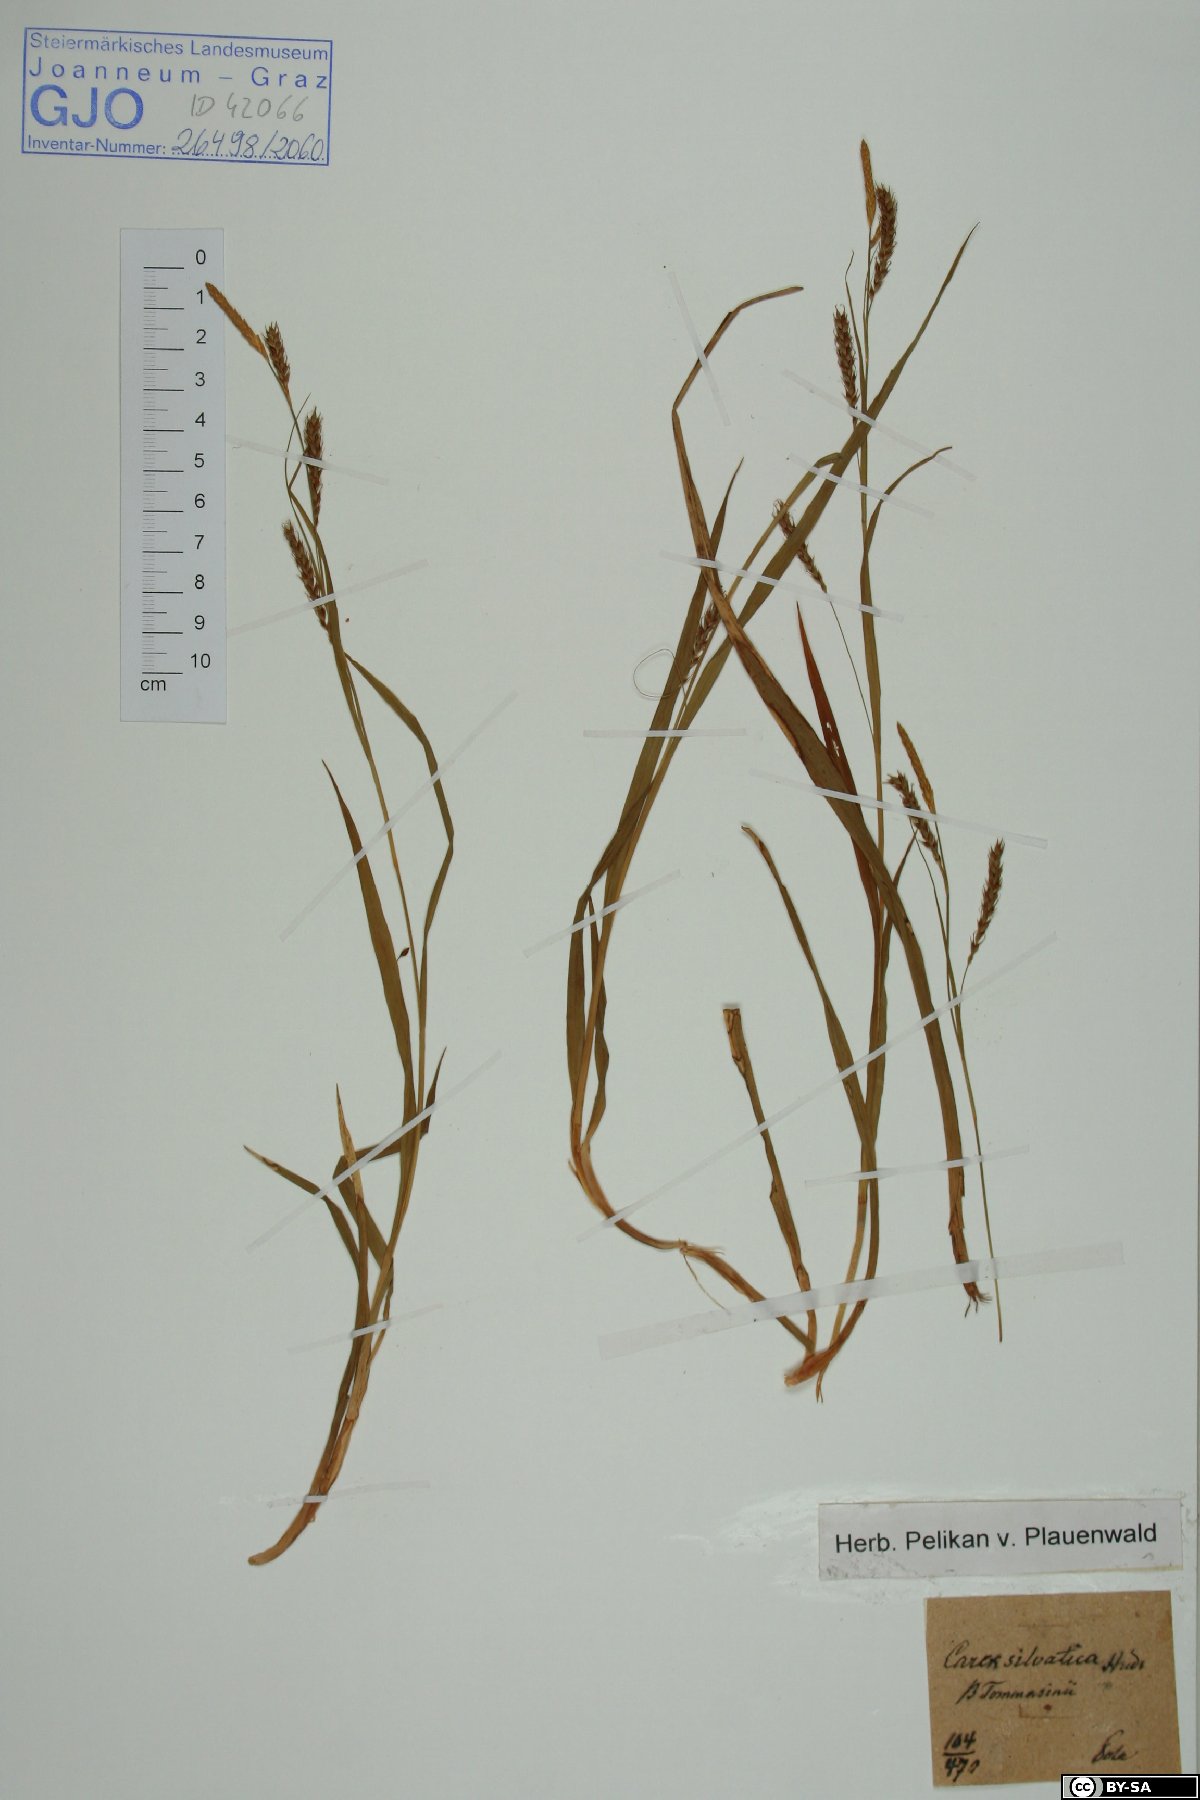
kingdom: Plantae
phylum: Tracheophyta
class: Liliopsida
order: Poales
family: Cyperaceae
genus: Carex
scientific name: Carex sylvatica
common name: Wood-sedge
